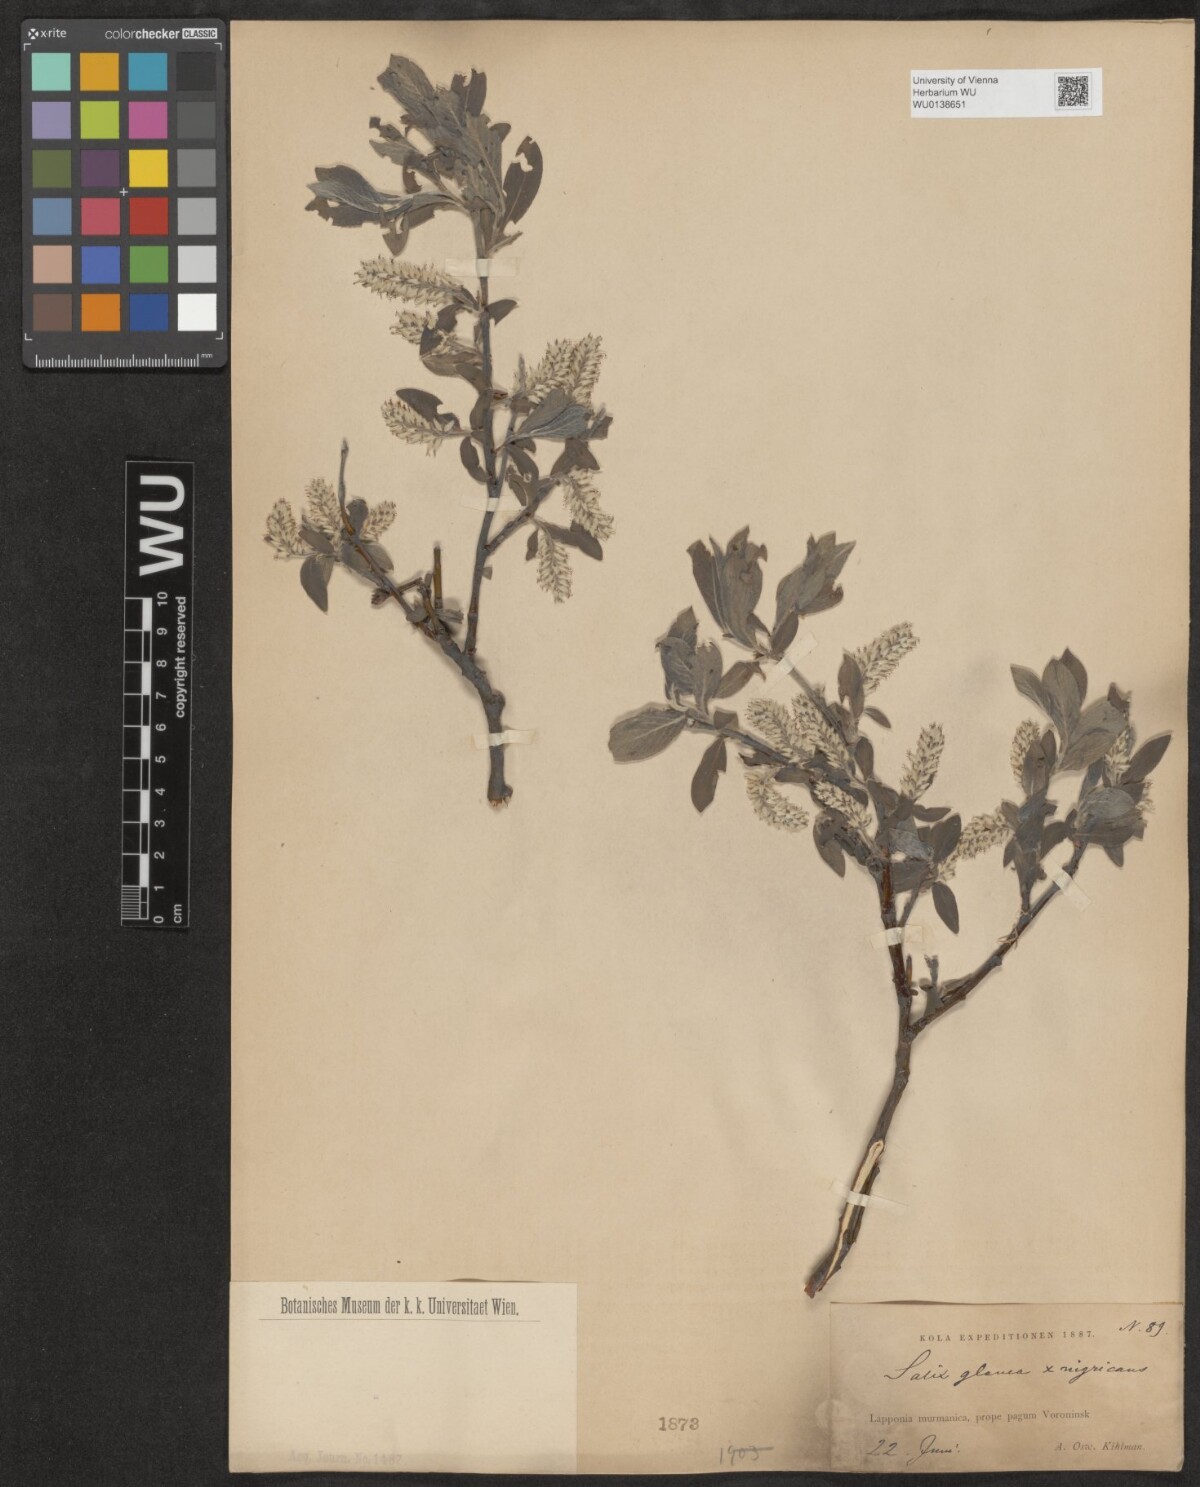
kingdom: Plantae
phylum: Tracheophyta
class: Magnoliopsida
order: Malpighiales
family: Salicaceae
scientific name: Salicaceae
